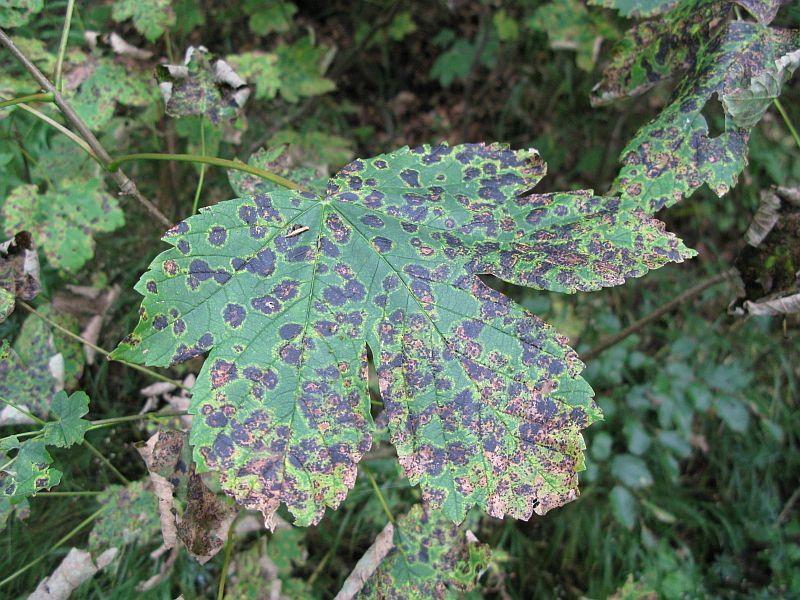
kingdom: Fungi
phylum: Ascomycota
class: Leotiomycetes
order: Rhytismatales
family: Rhytismataceae
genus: Rhytisma
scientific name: Rhytisma acerinum
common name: ahorn-rynkeplet
